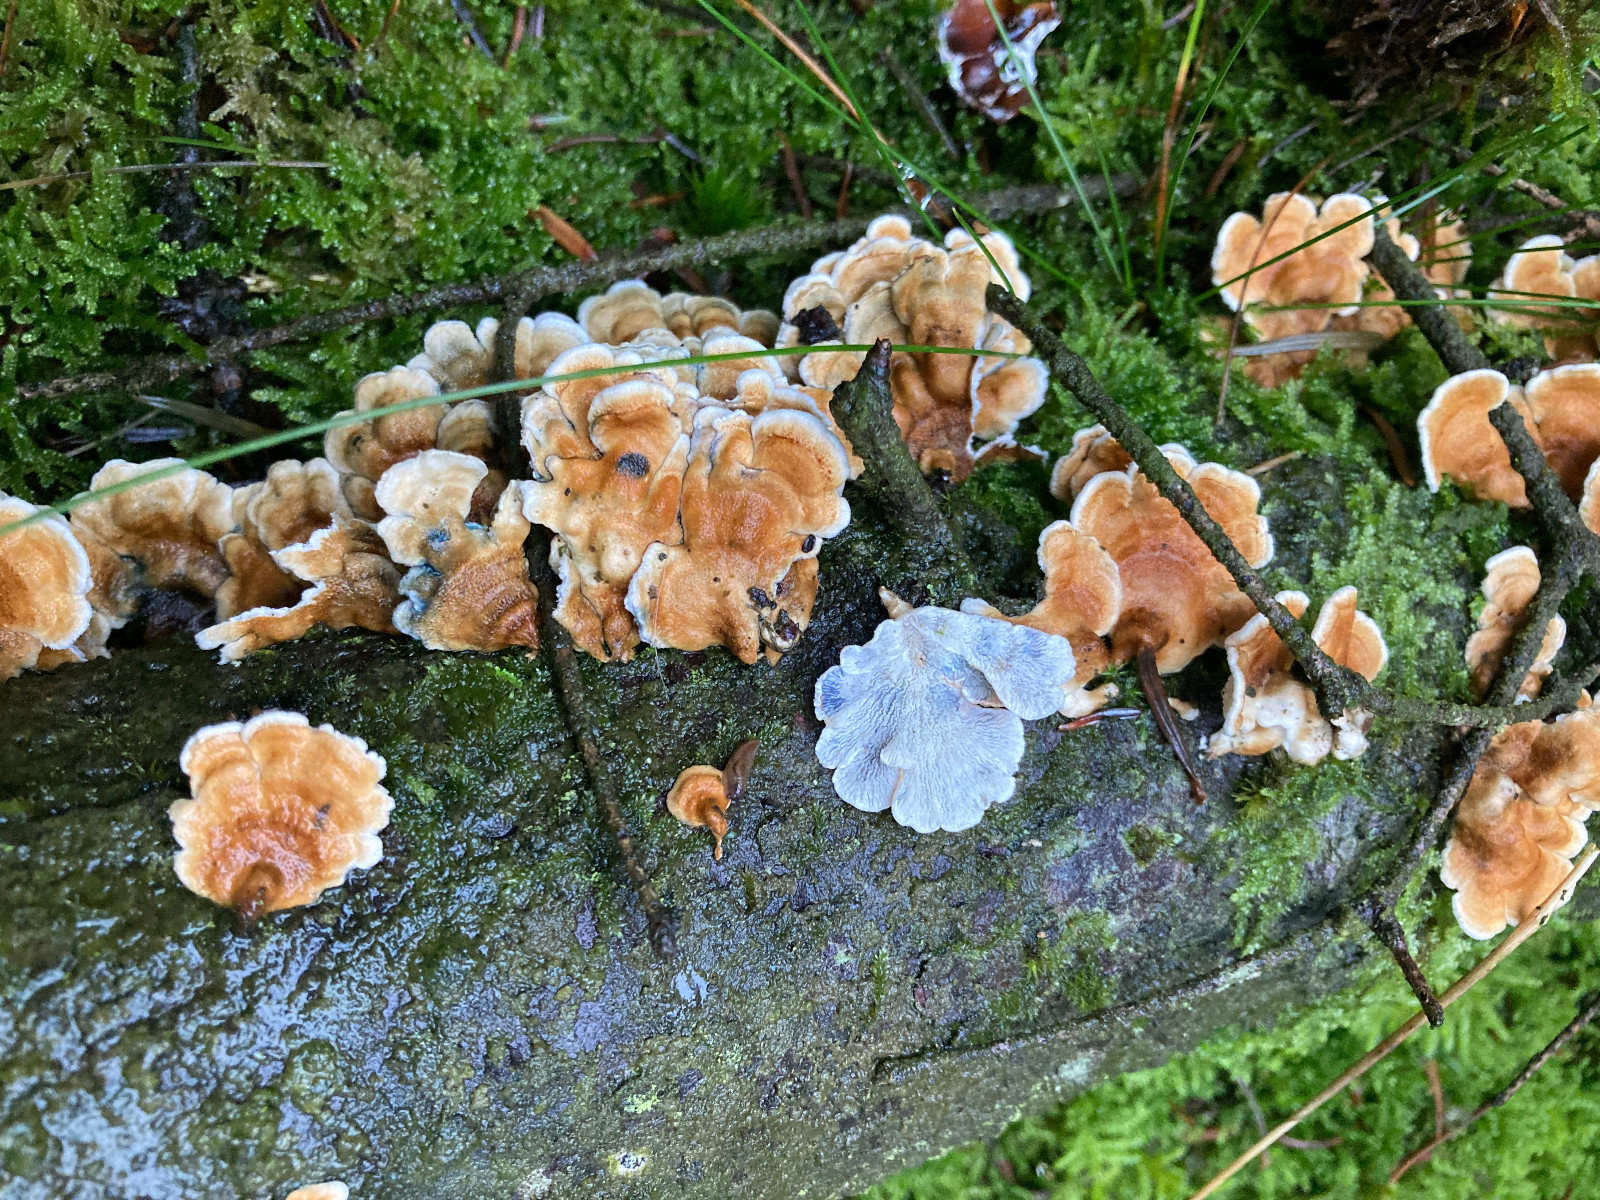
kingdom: Fungi
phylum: Basidiomycota
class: Agaricomycetes
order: Amylocorticiales
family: Amylocorticiaceae
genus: Plicaturopsis
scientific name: Plicaturopsis crispa
